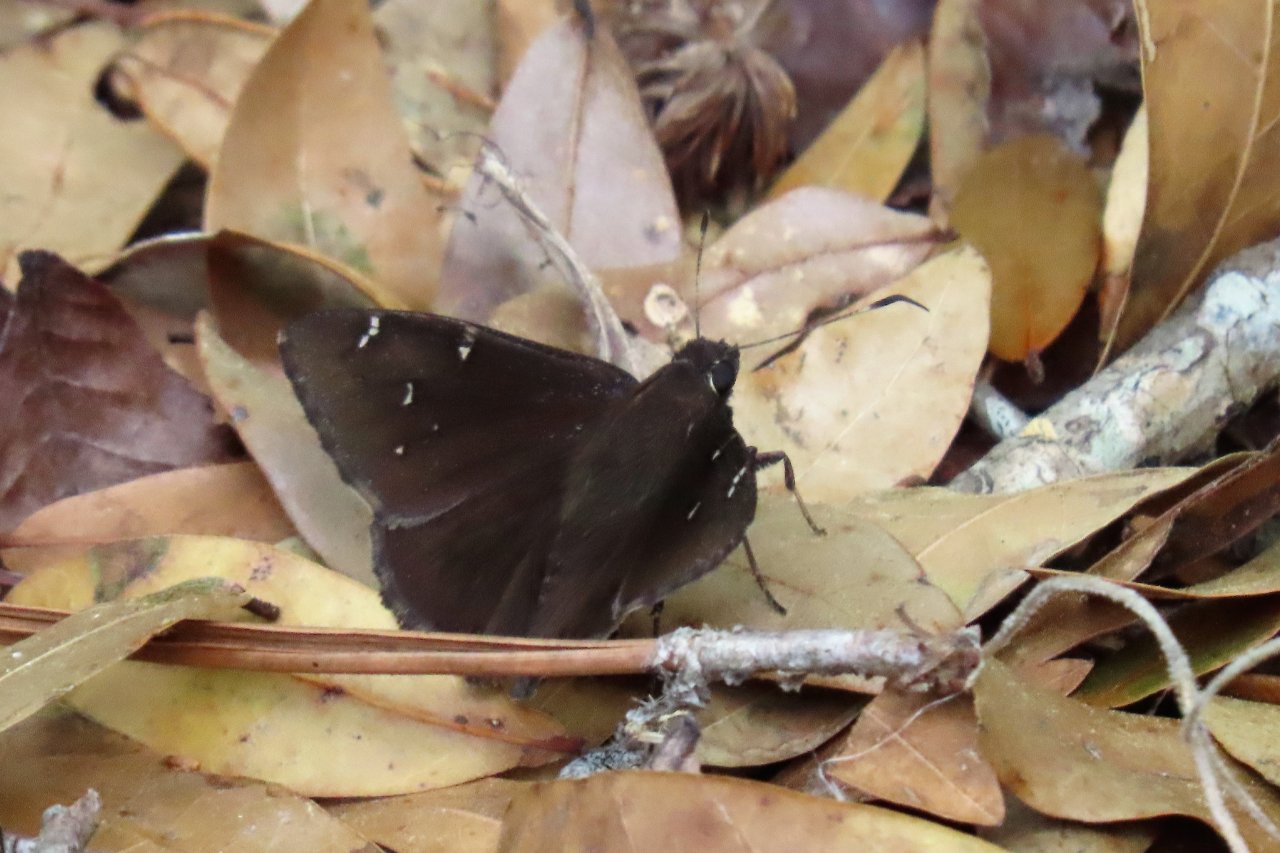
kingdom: Animalia
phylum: Arthropoda
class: Insecta
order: Lepidoptera
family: Hesperiidae
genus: Autochton
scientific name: Autochton
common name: Northern Cloudywing
